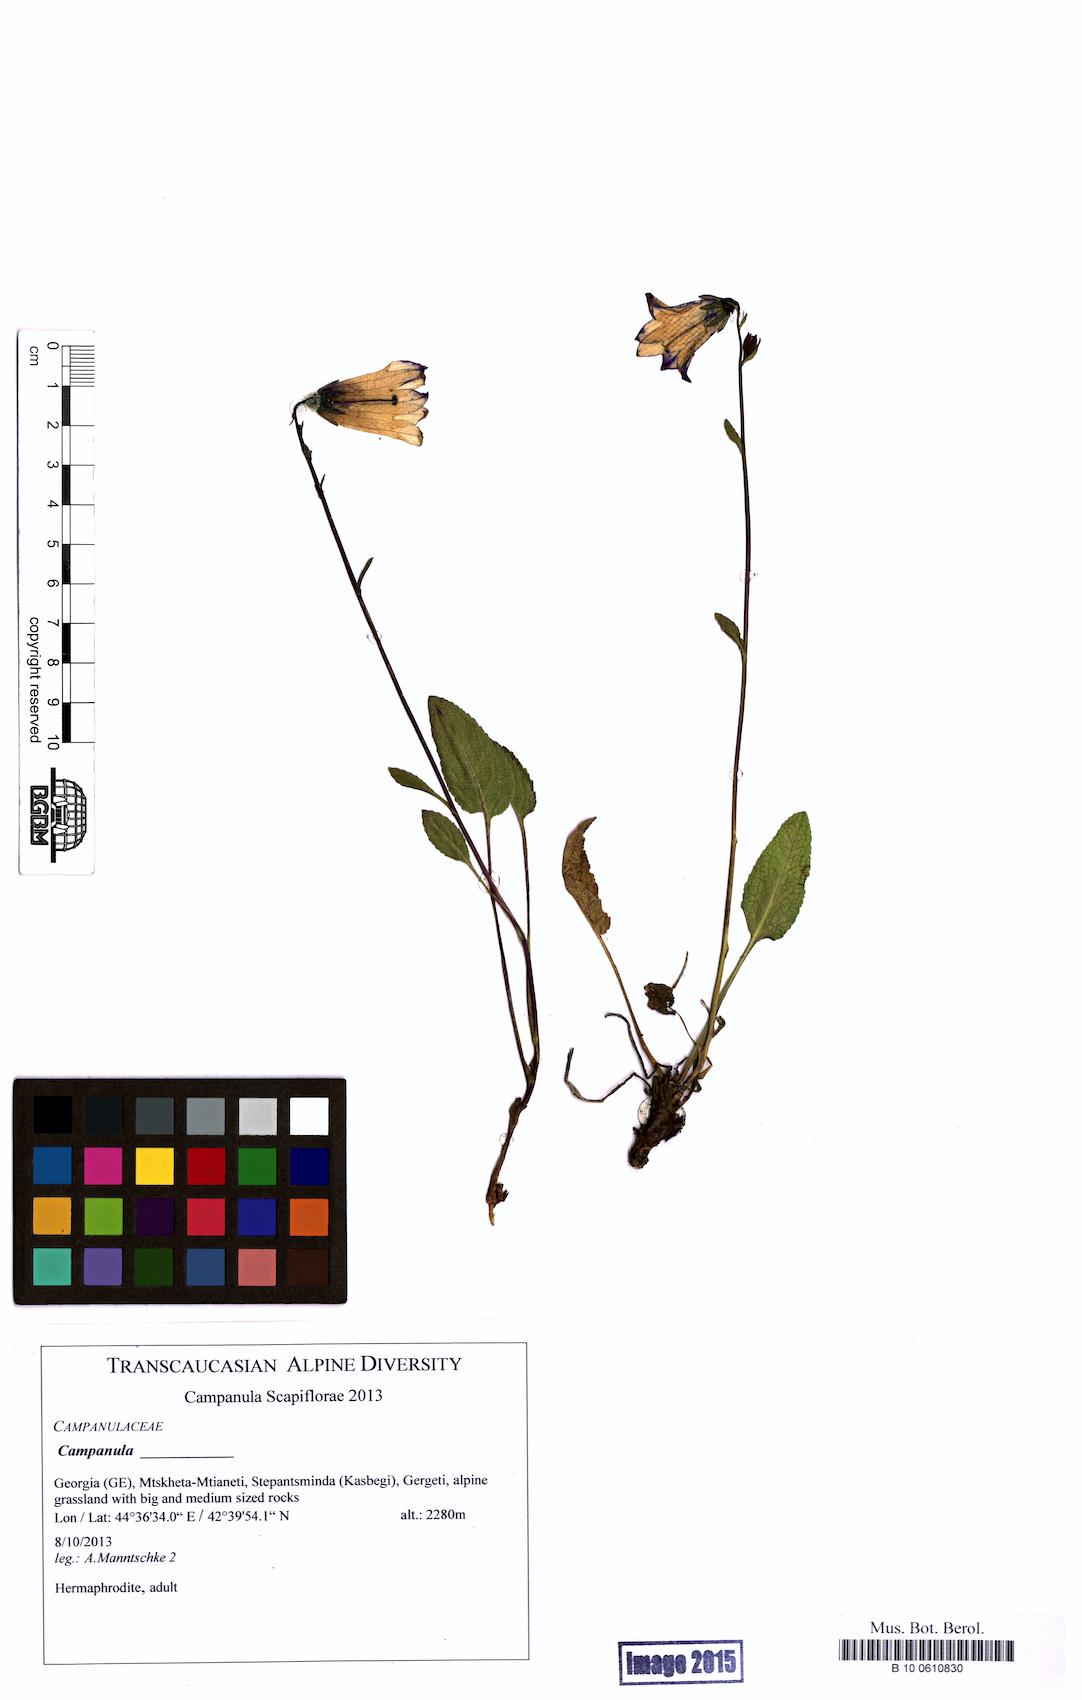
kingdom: Plantae
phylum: Tracheophyta
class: Magnoliopsida
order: Asterales
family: Campanulaceae
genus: Campanula
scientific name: Campanula
